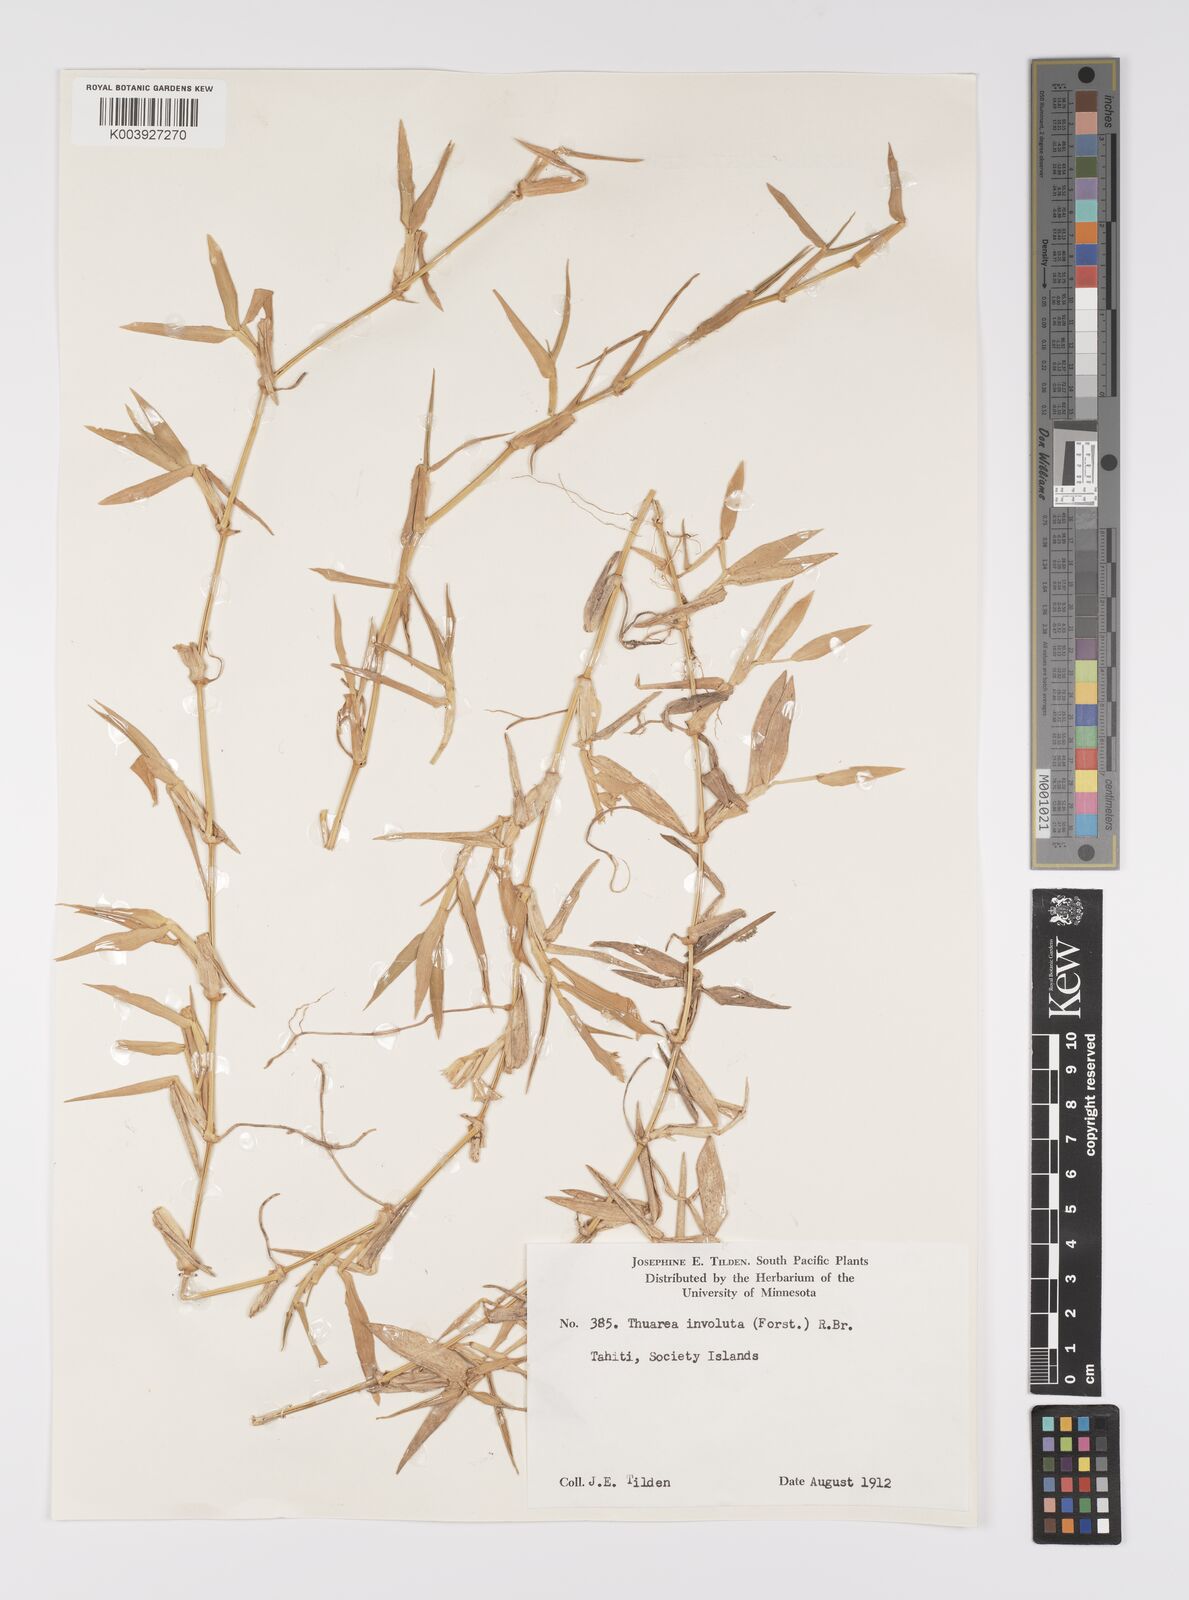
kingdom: Plantae
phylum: Tracheophyta
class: Liliopsida
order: Poales
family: Poaceae
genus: Thuarea
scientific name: Thuarea involuta
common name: Tropical beach grass
